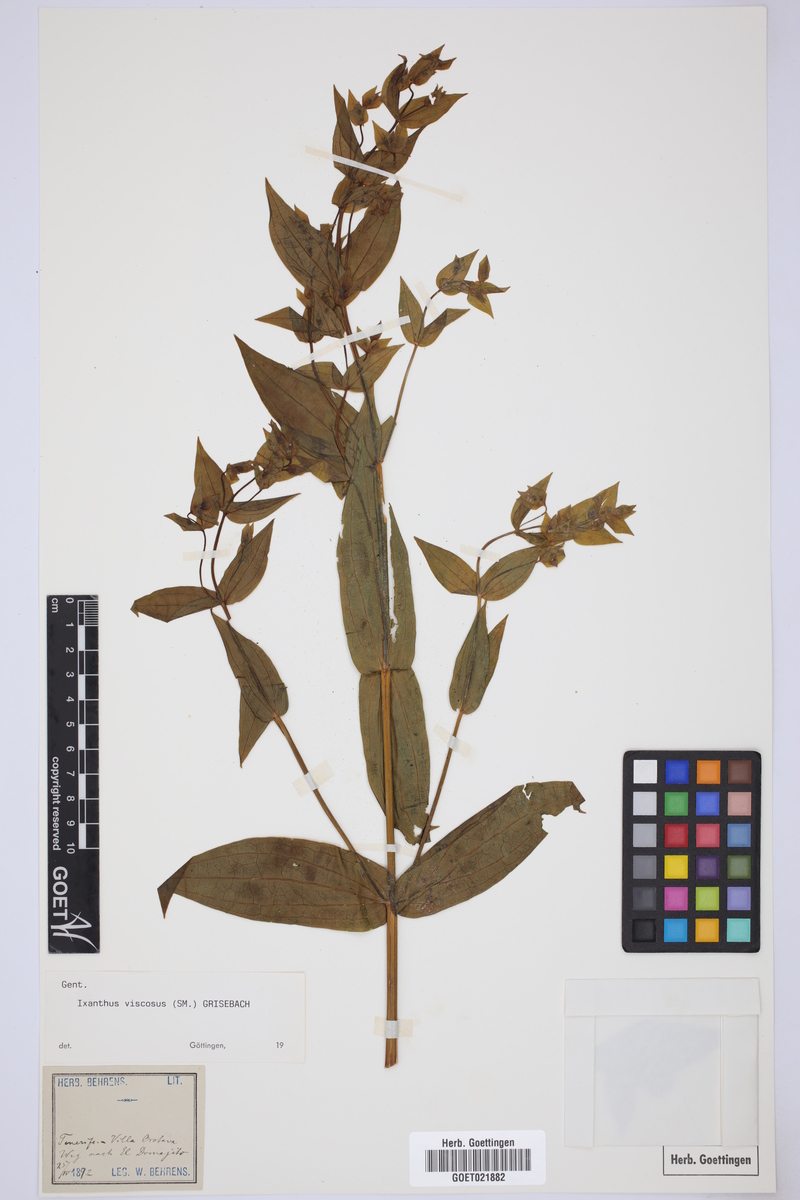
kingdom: Plantae
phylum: Tracheophyta
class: Magnoliopsida
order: Gentianales
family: Gentianaceae
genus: Ixanthus
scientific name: Ixanthus viscosus
